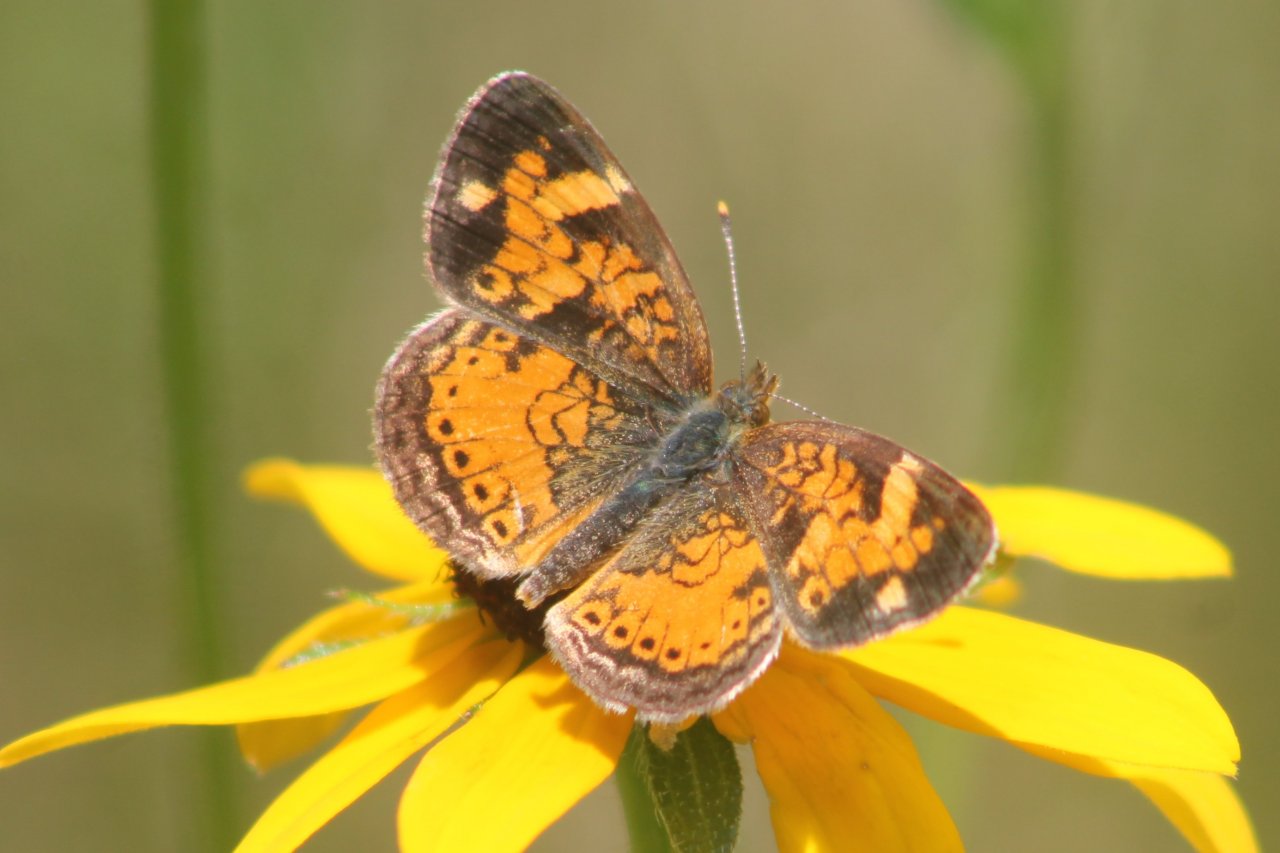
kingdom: Animalia
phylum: Arthropoda
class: Insecta
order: Lepidoptera
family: Nymphalidae
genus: Phyciodes
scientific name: Phyciodes tharos
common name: Pearl Crescent
